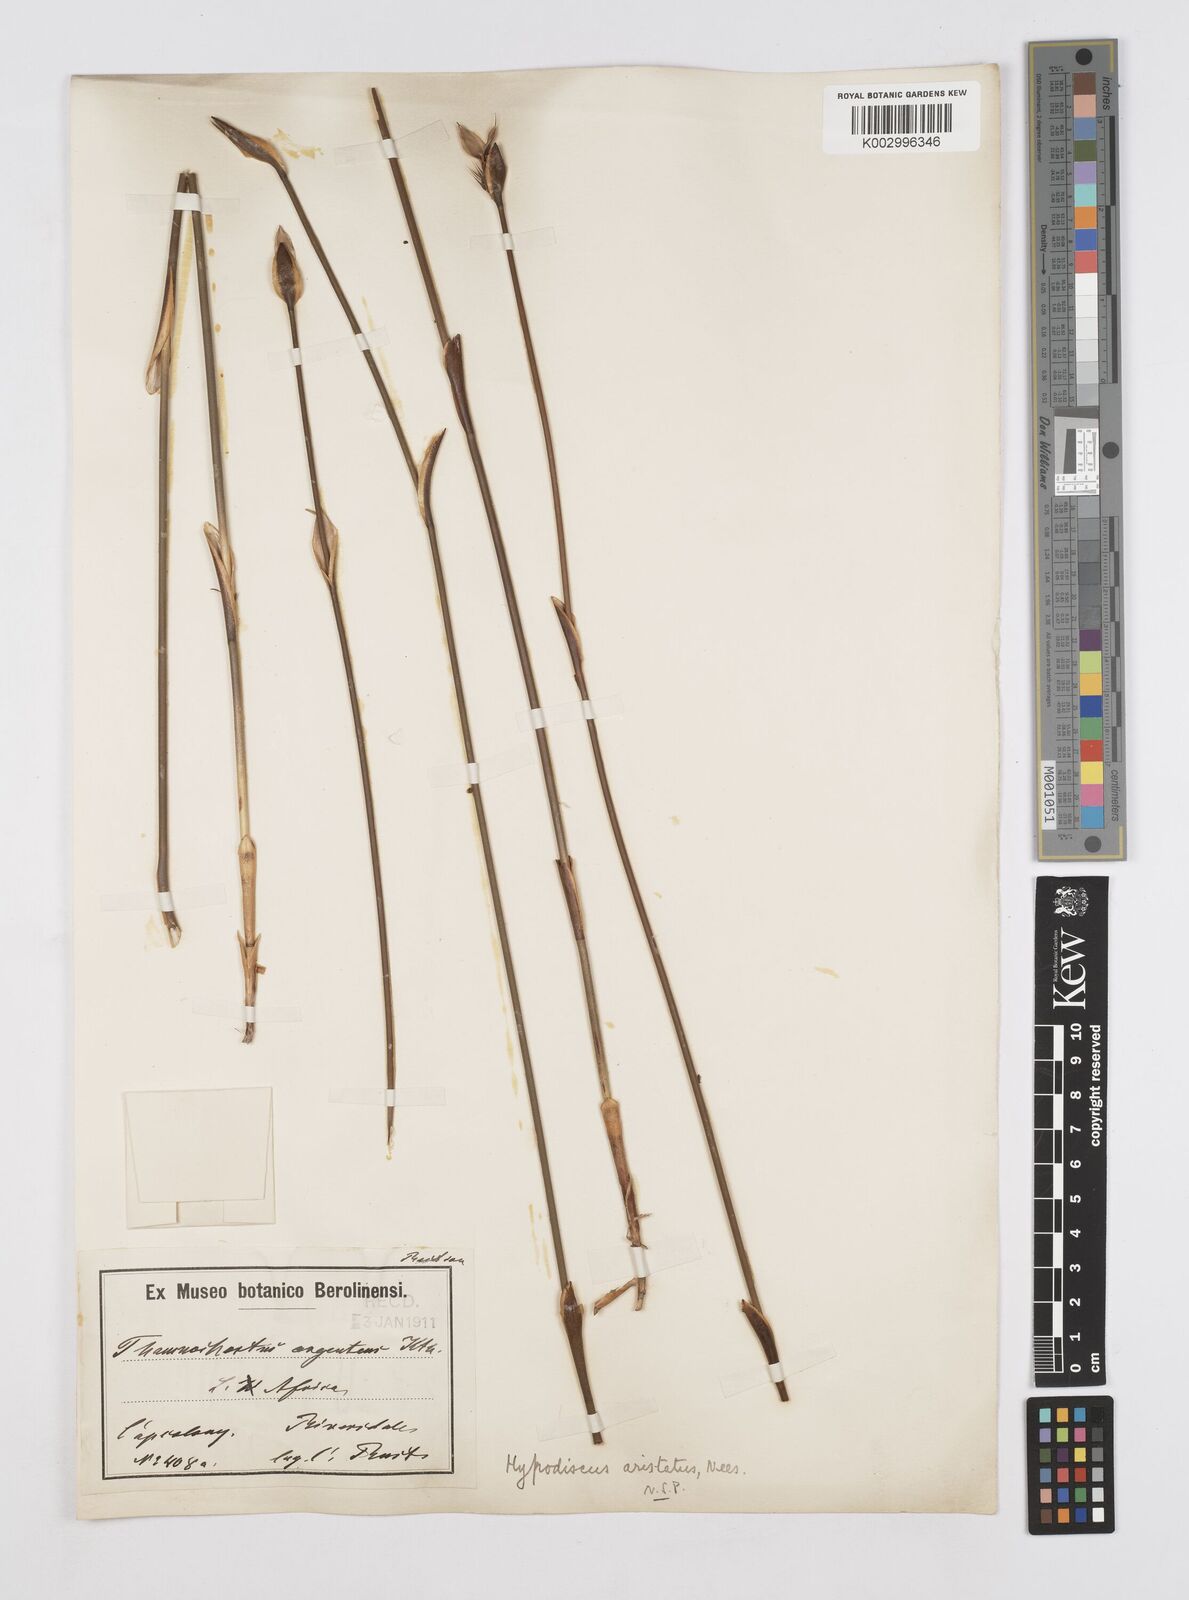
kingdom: Plantae
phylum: Tracheophyta
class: Liliopsida
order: Poales
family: Restionaceae
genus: Hypodiscus
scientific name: Hypodiscus aristatus
